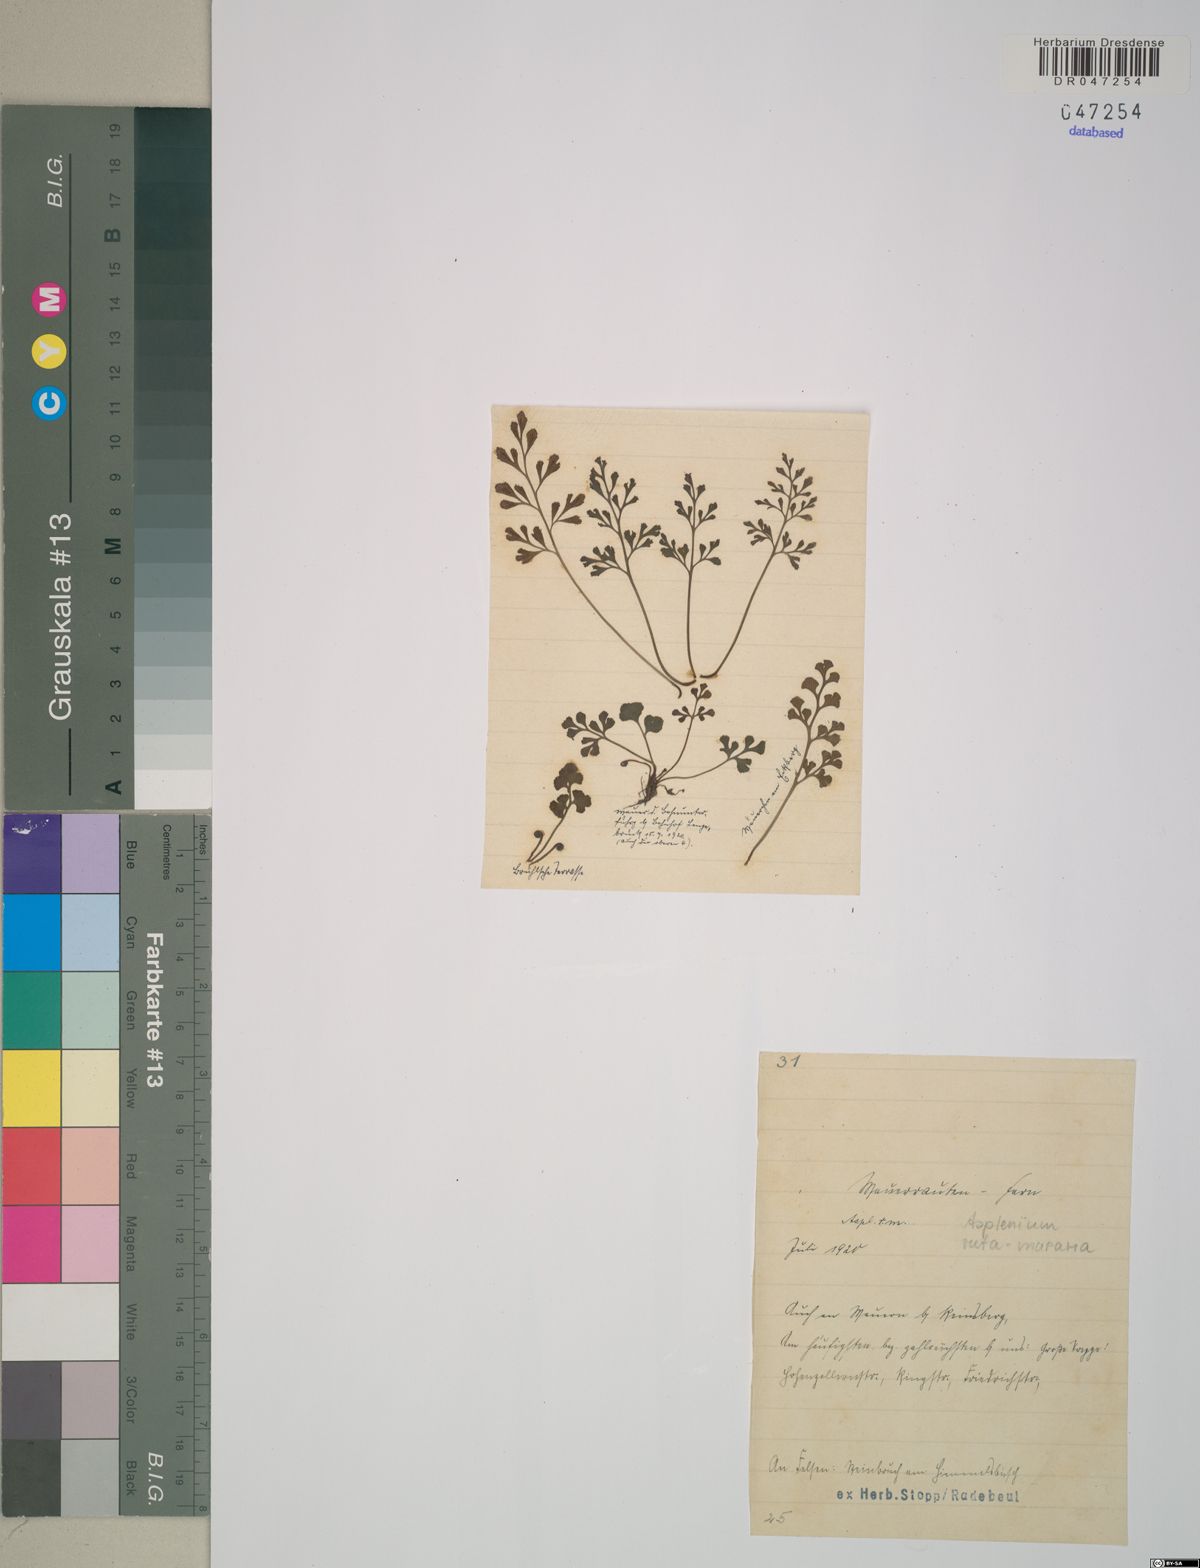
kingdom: Plantae
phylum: Tracheophyta
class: Polypodiopsida
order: Polypodiales
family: Aspleniaceae
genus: Asplenium
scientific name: Asplenium ruta-muraria
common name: Wall-rue
